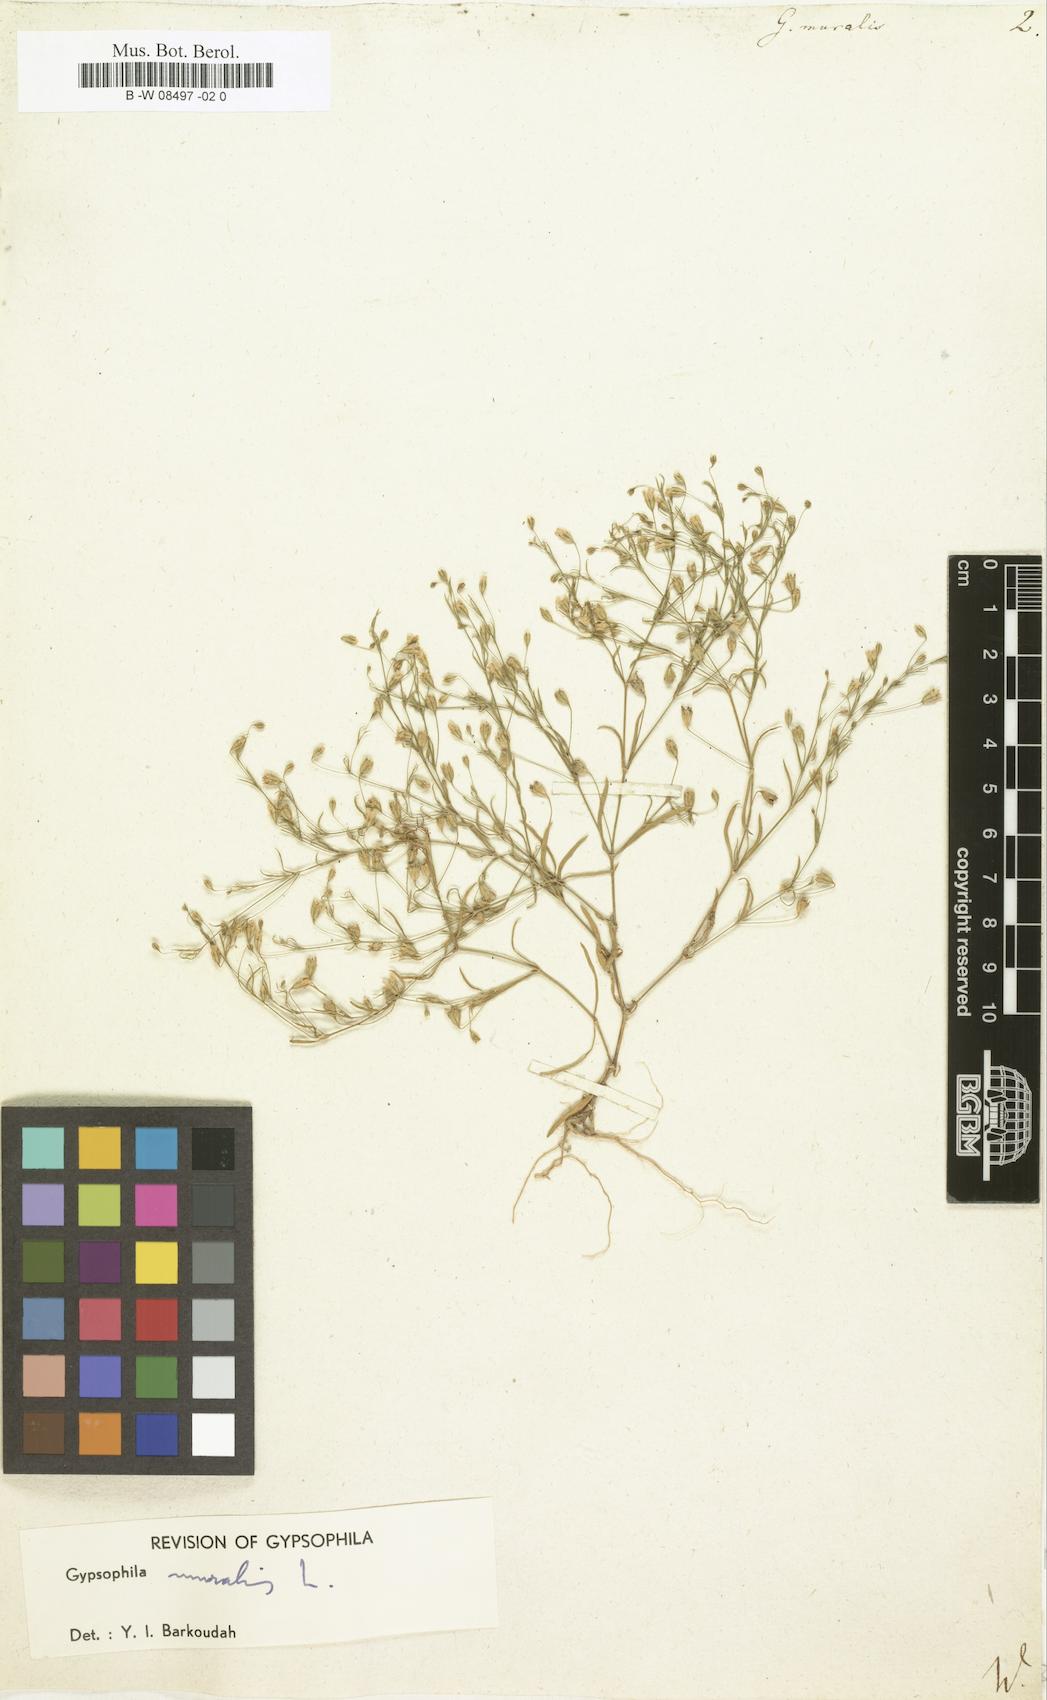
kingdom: Plantae
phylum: Tracheophyta
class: Magnoliopsida
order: Caryophyllales
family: Caryophyllaceae
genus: Psammophiliella
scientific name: Psammophiliella muralis
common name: Cushion baby's-breath
